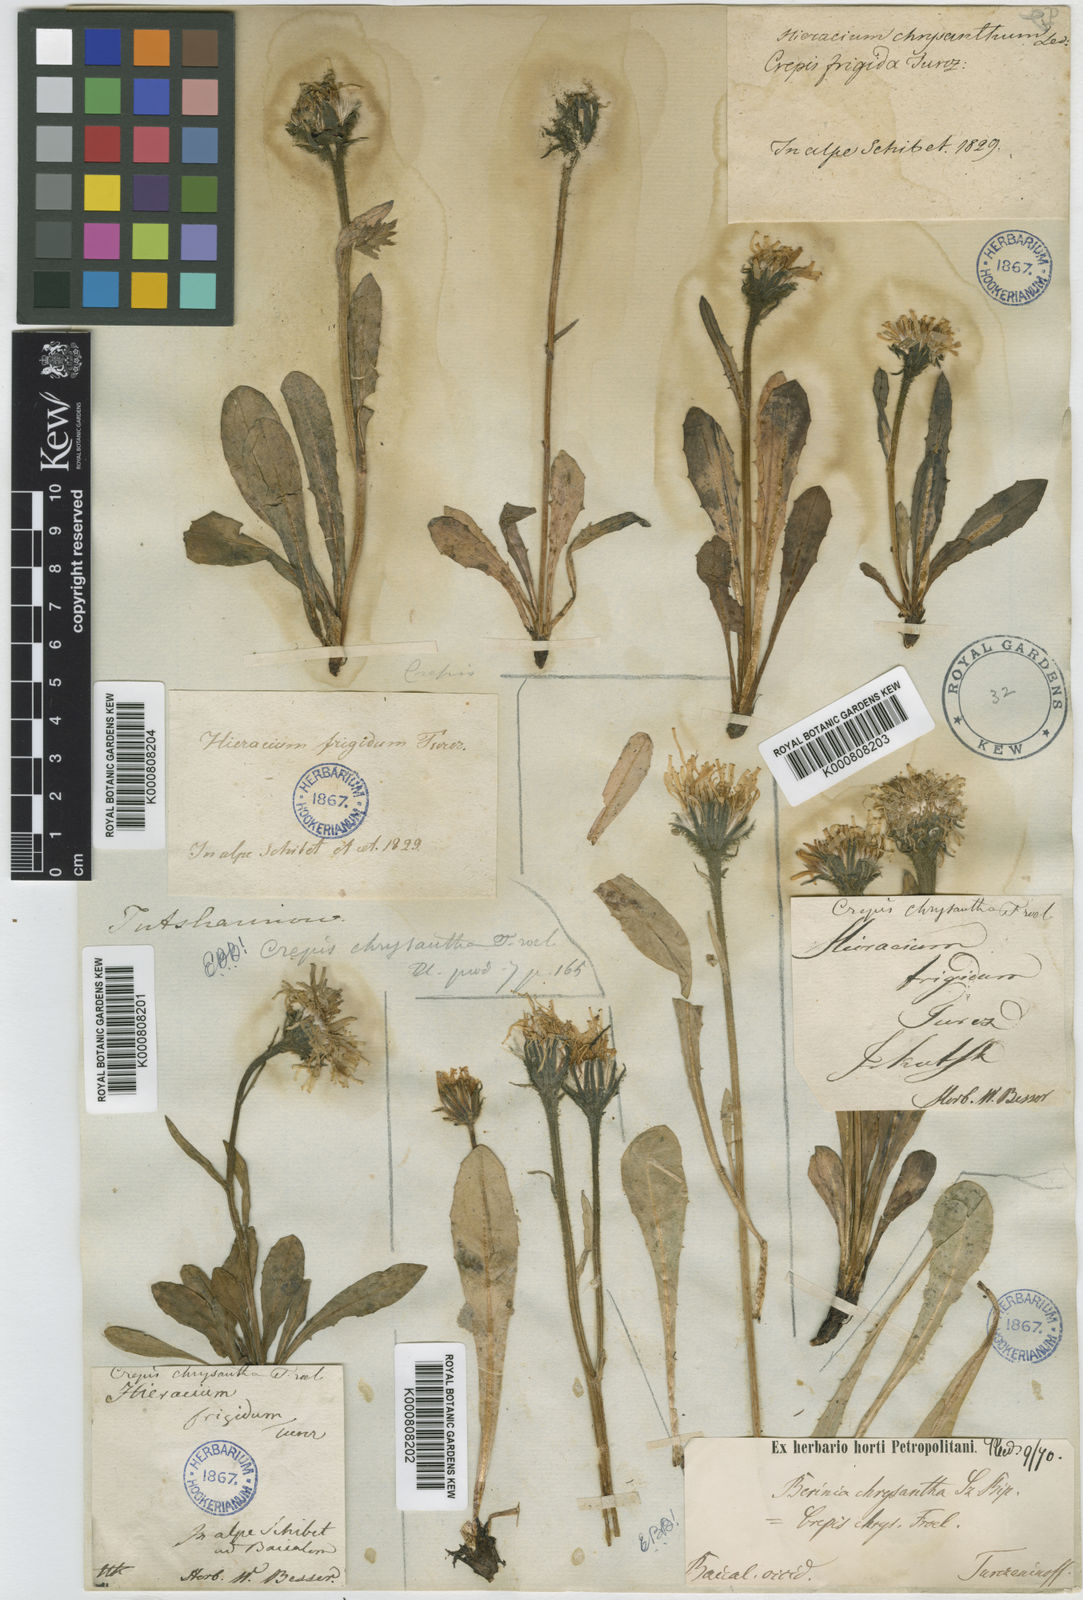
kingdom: Plantae
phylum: Tracheophyta
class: Magnoliopsida
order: Asterales
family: Asteraceae
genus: Crepis
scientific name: Crepis
